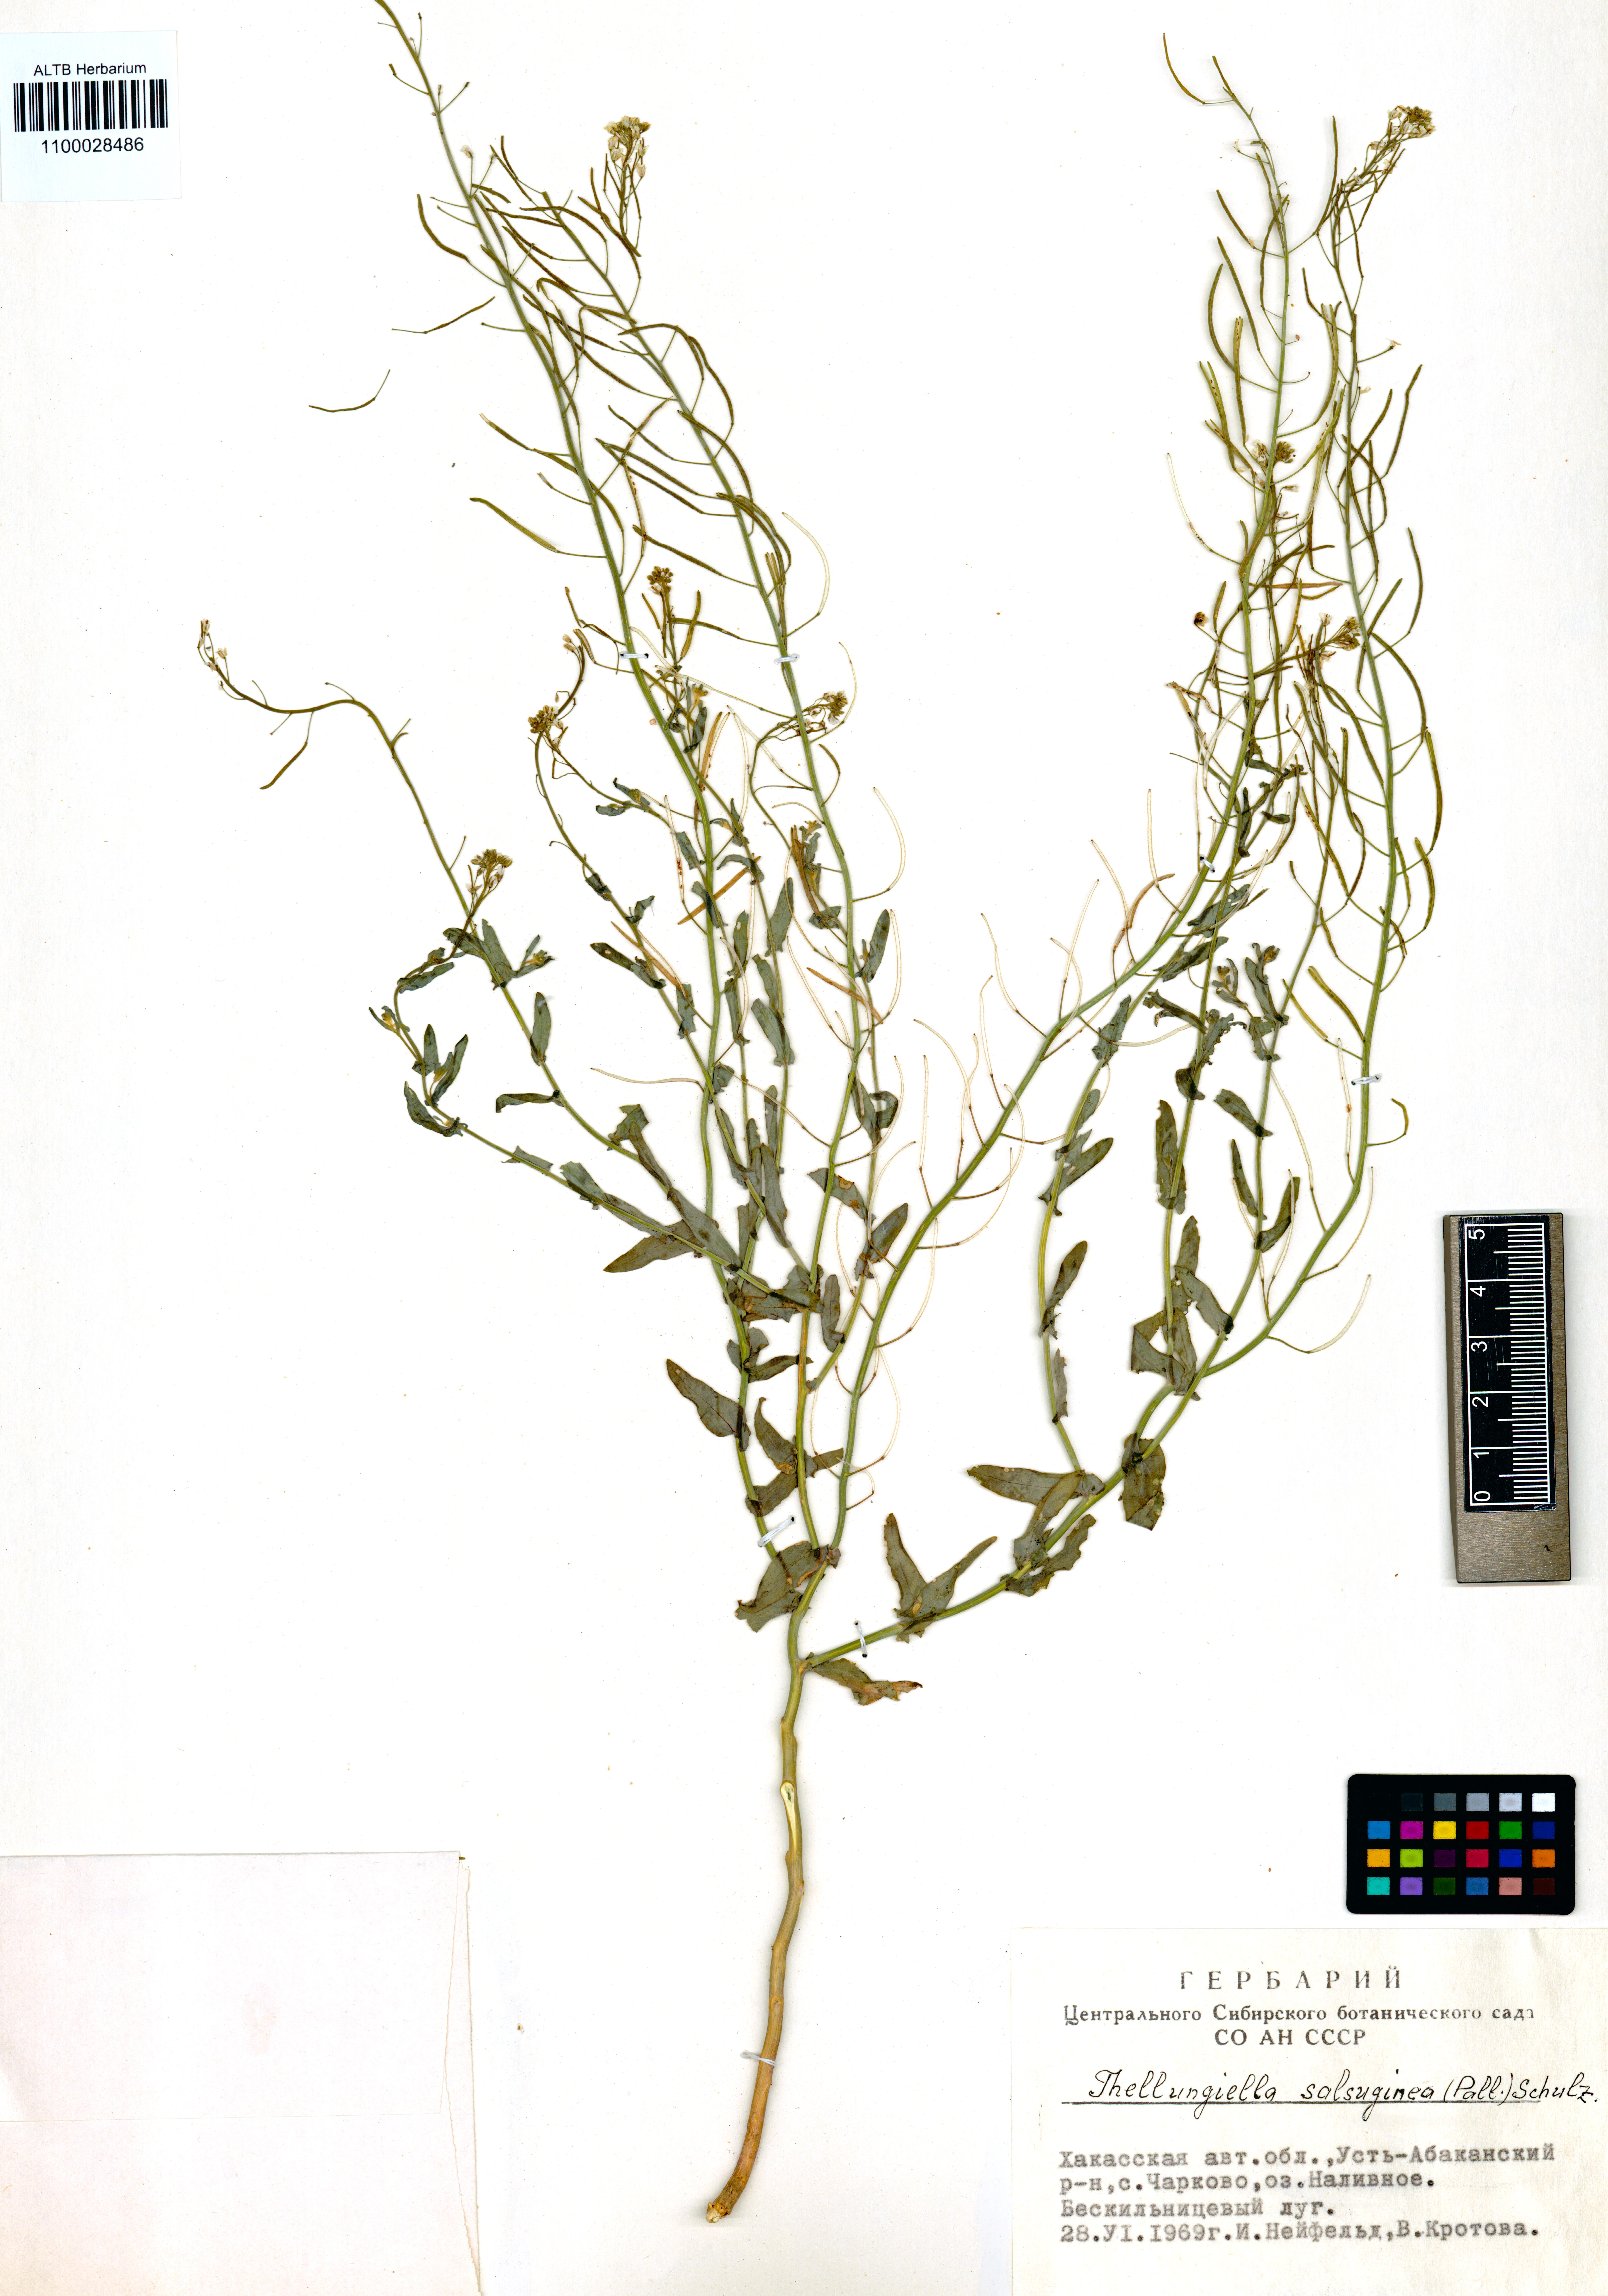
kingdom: Plantae
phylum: Tracheophyta
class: Magnoliopsida
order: Brassicales
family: Brassicaceae
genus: Eutrema
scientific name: Eutrema salsugineum
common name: Mouse-ear cress
